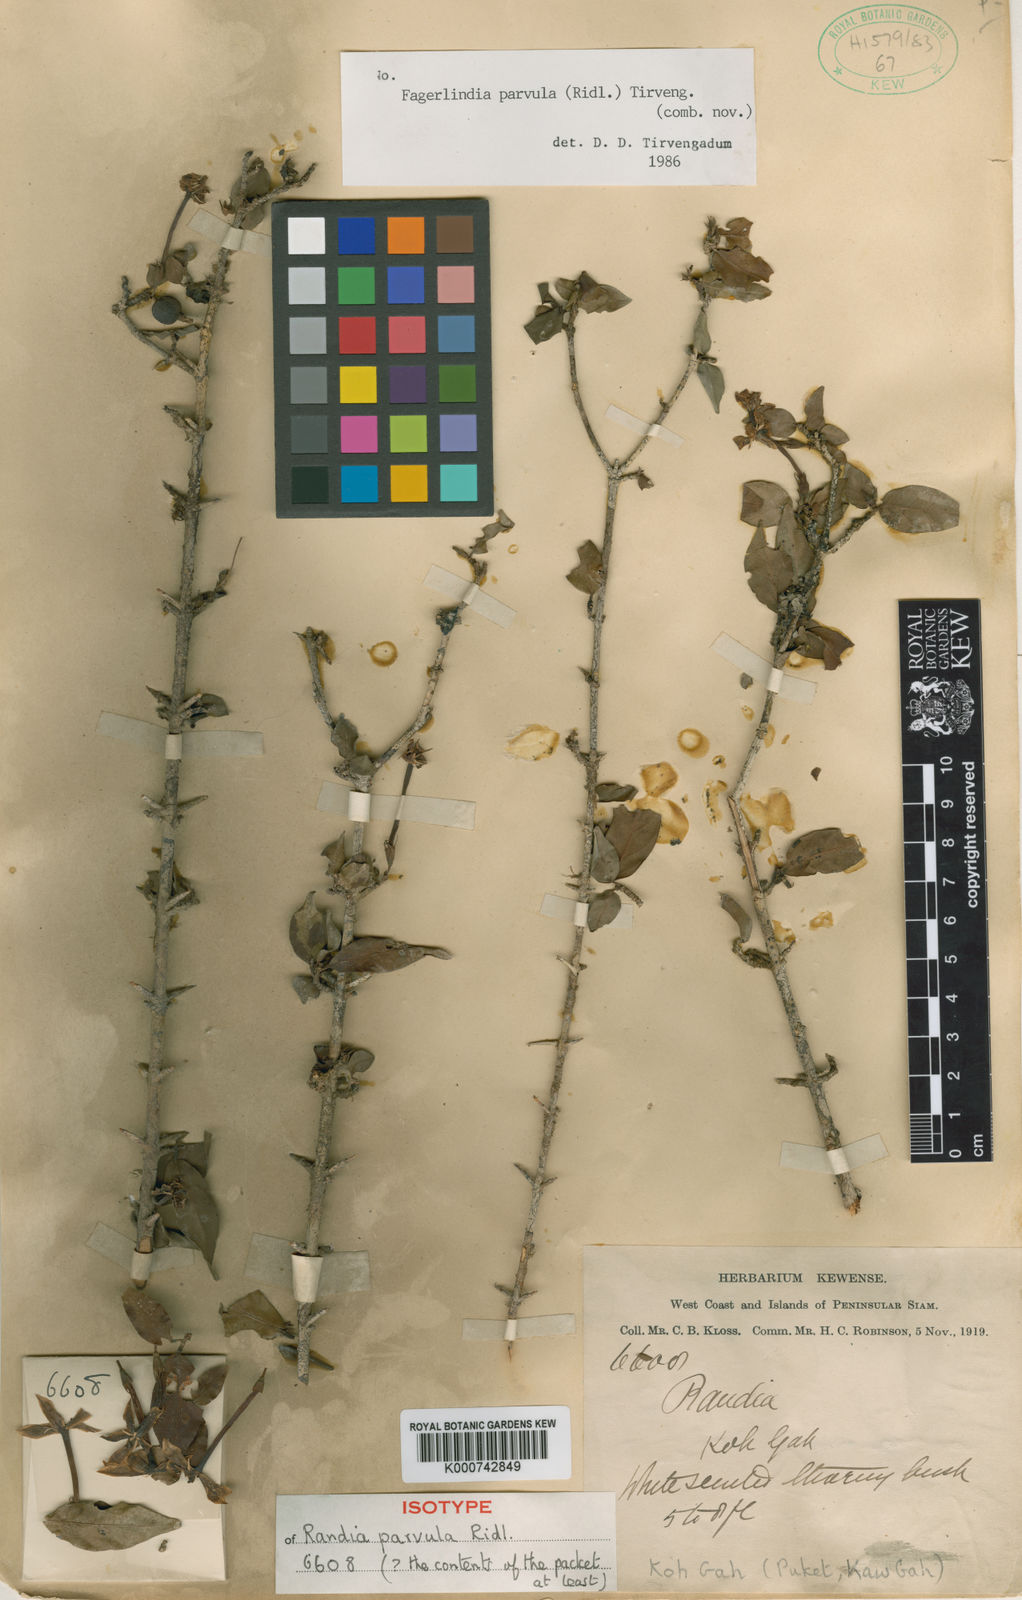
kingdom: Plantae
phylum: Tracheophyta
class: Magnoliopsida
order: Gentianales
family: Rubiaceae
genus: Benkara
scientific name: Benkara armigera
